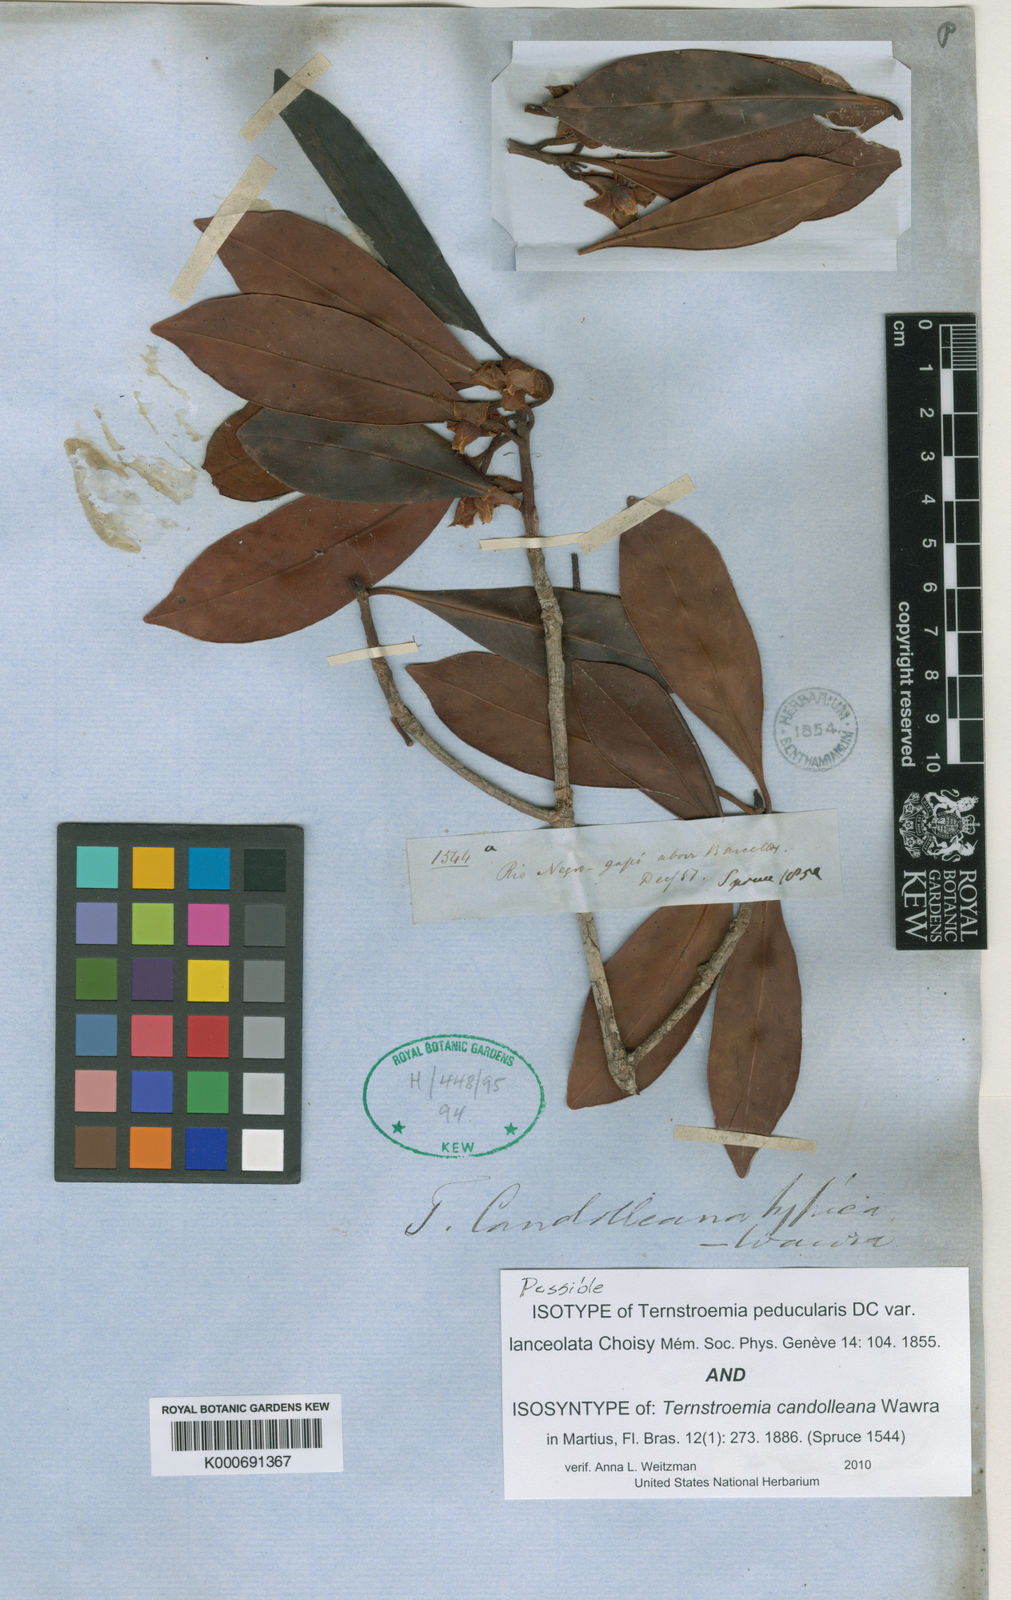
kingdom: Plantae
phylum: Tracheophyta
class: Magnoliopsida
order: Ericales
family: Pentaphylacaceae
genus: Ternstroemia
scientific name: Ternstroemia candolleana
